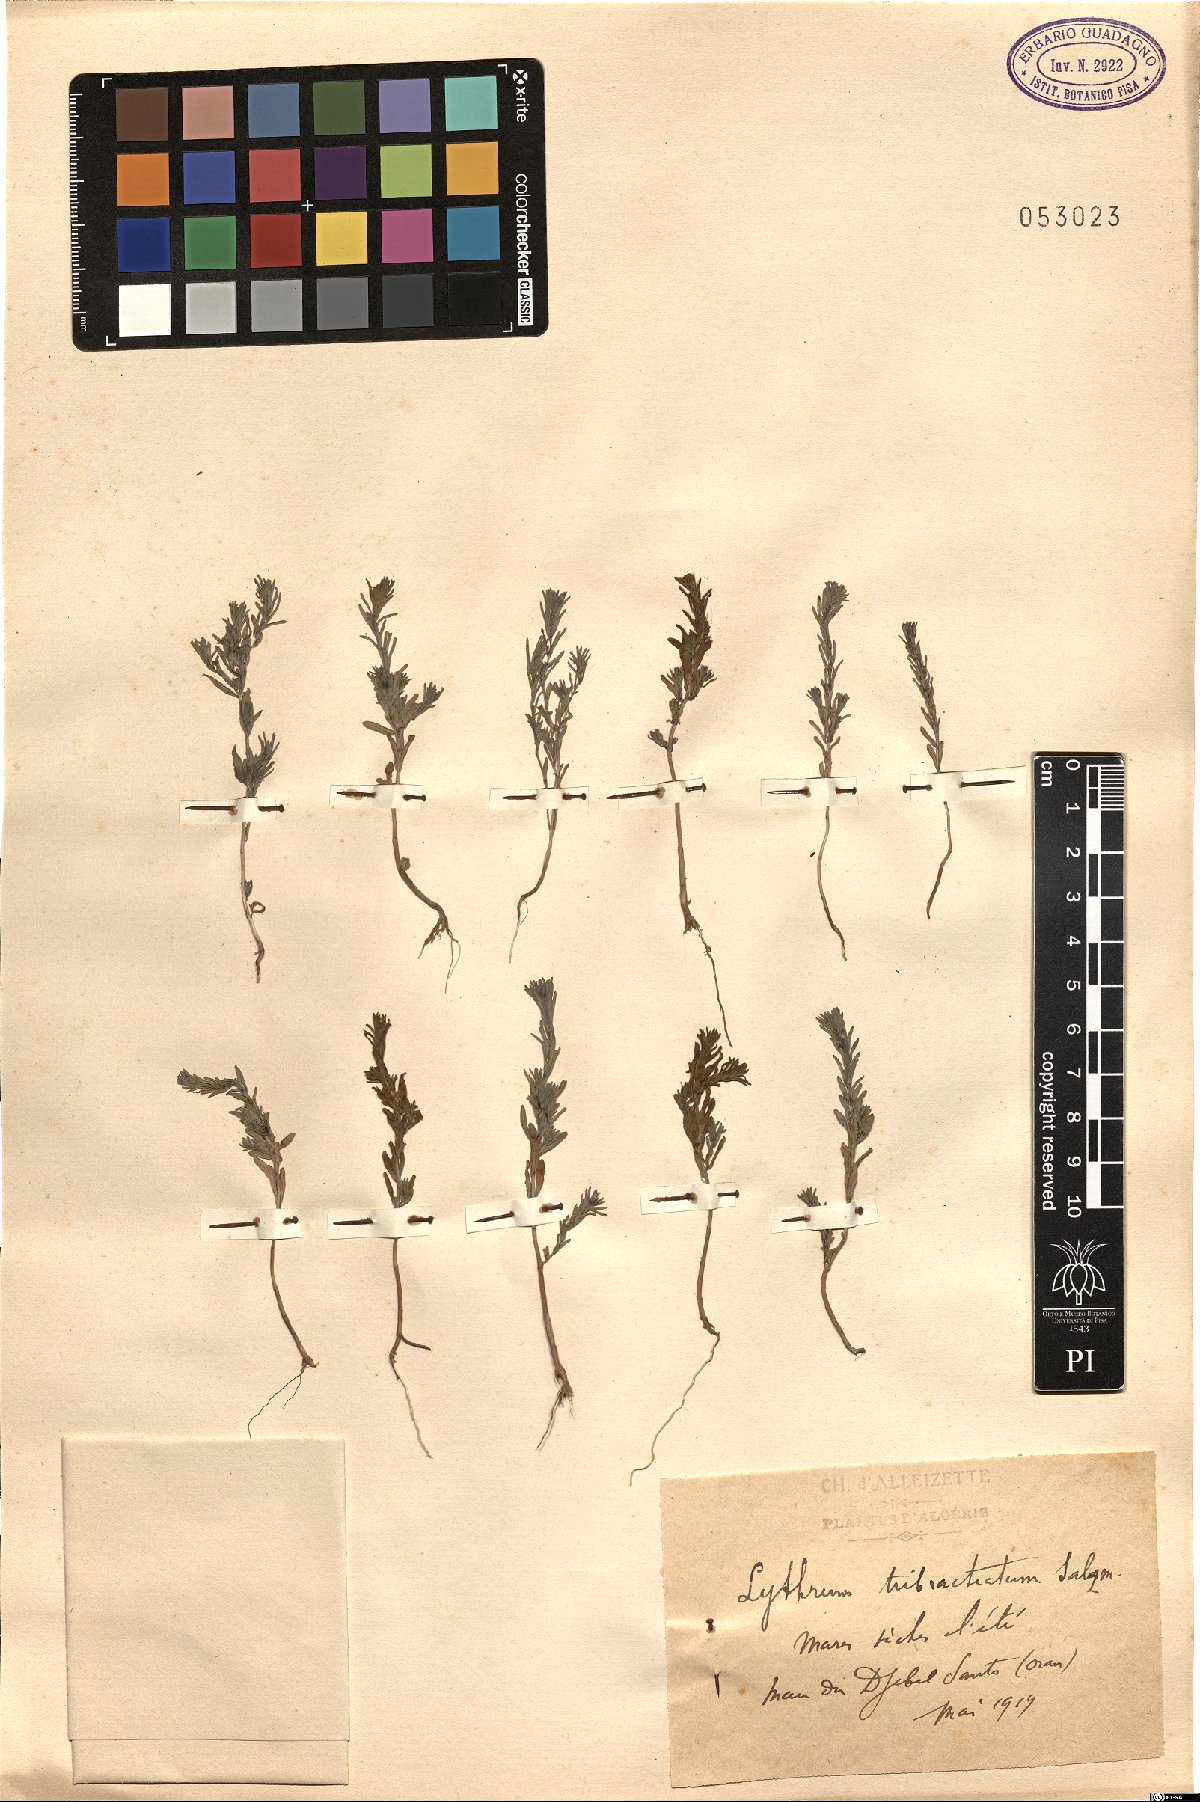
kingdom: Plantae
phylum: Tracheophyta
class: Magnoliopsida
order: Myrtales
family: Lythraceae
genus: Lythrum
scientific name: Lythrum tribracteatum
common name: Threebract loosestrife
